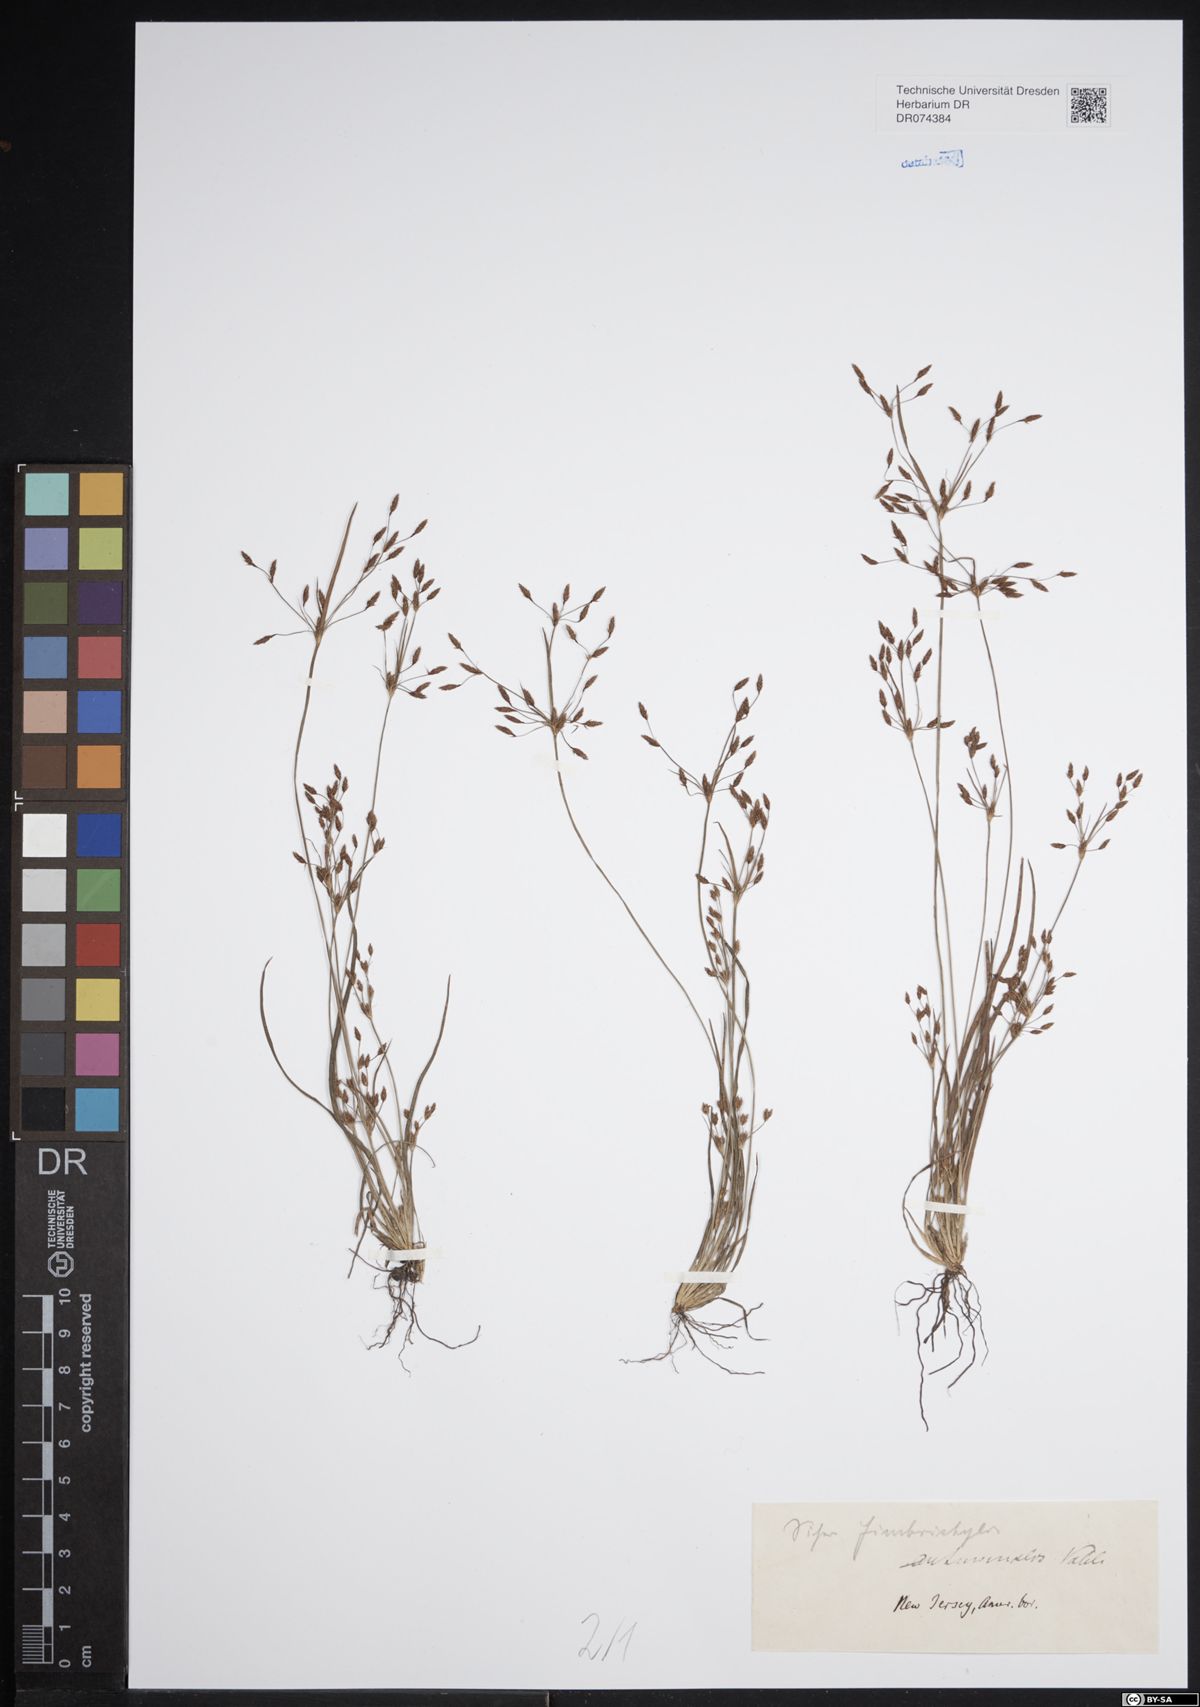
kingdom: Plantae
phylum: Tracheophyta
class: Liliopsida
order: Poales
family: Cyperaceae
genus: Fimbristylis
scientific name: Fimbristylis autumnalis
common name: Slender fimbristylis
